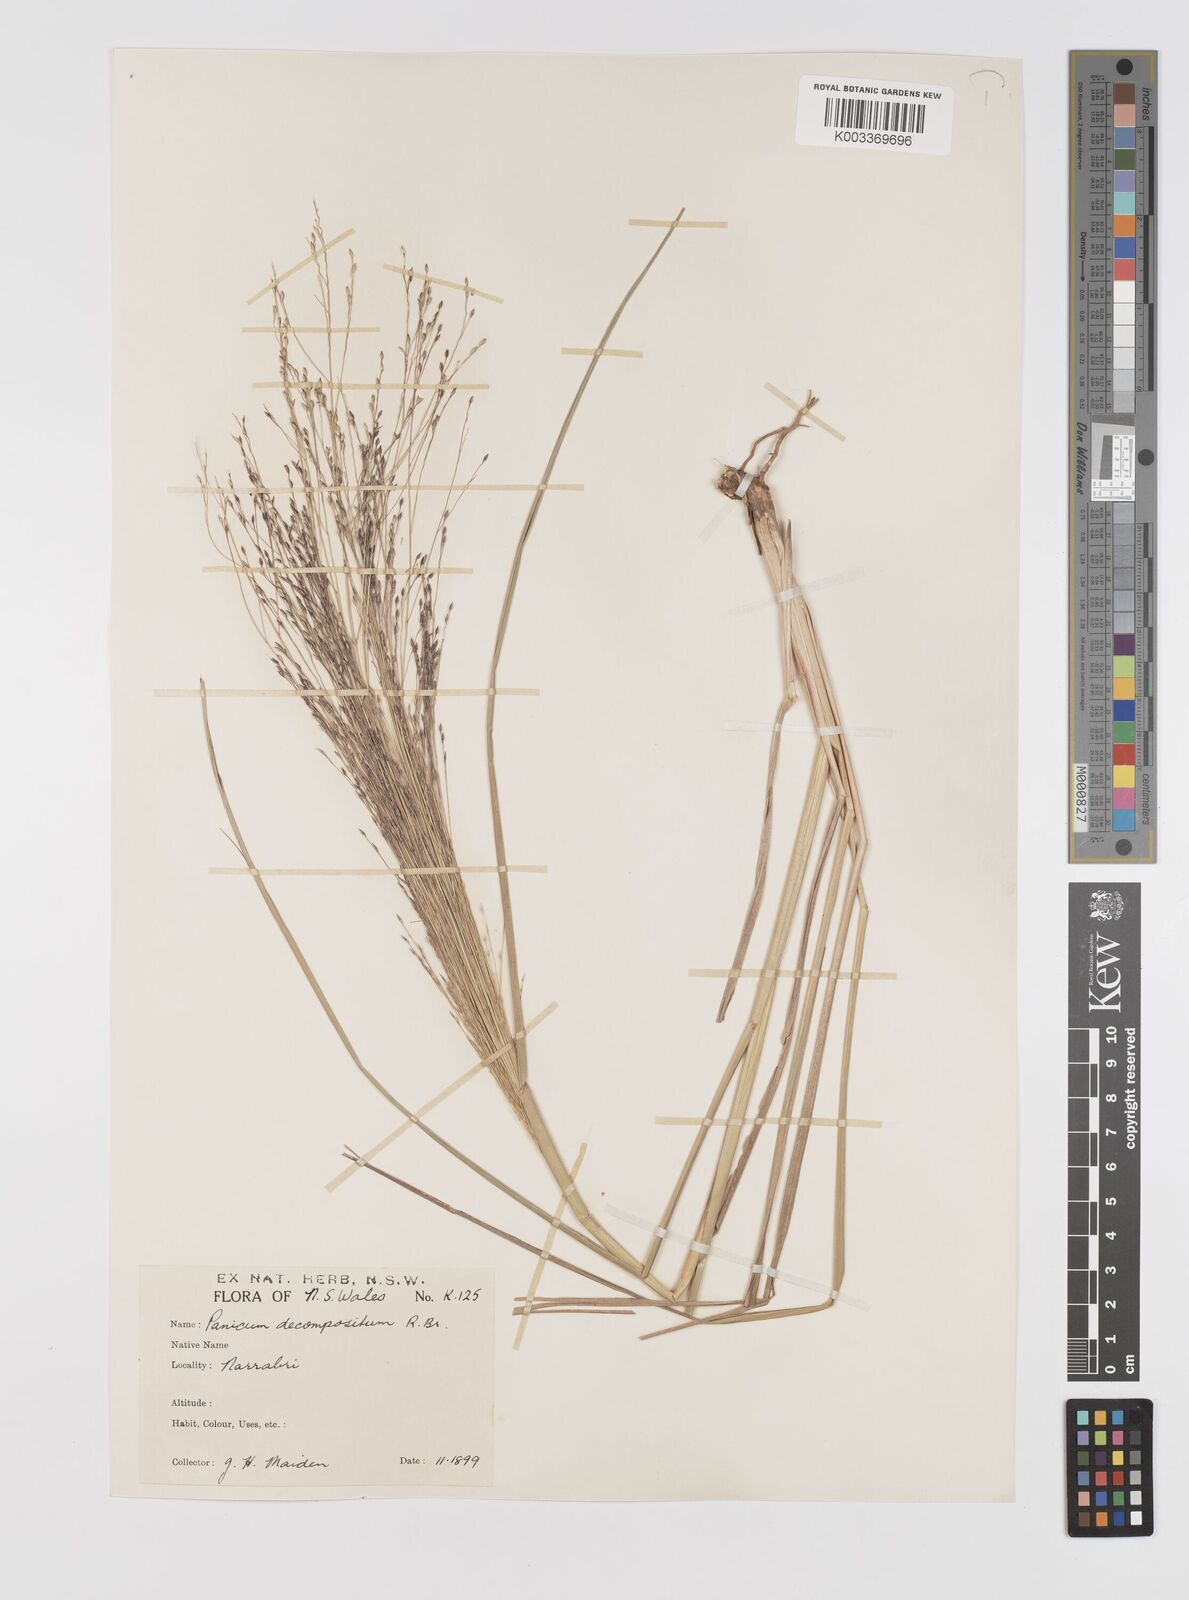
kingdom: Plantae
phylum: Tracheophyta
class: Liliopsida
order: Poales
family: Poaceae
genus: Panicum
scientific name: Panicum decompositum
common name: Australian millet
